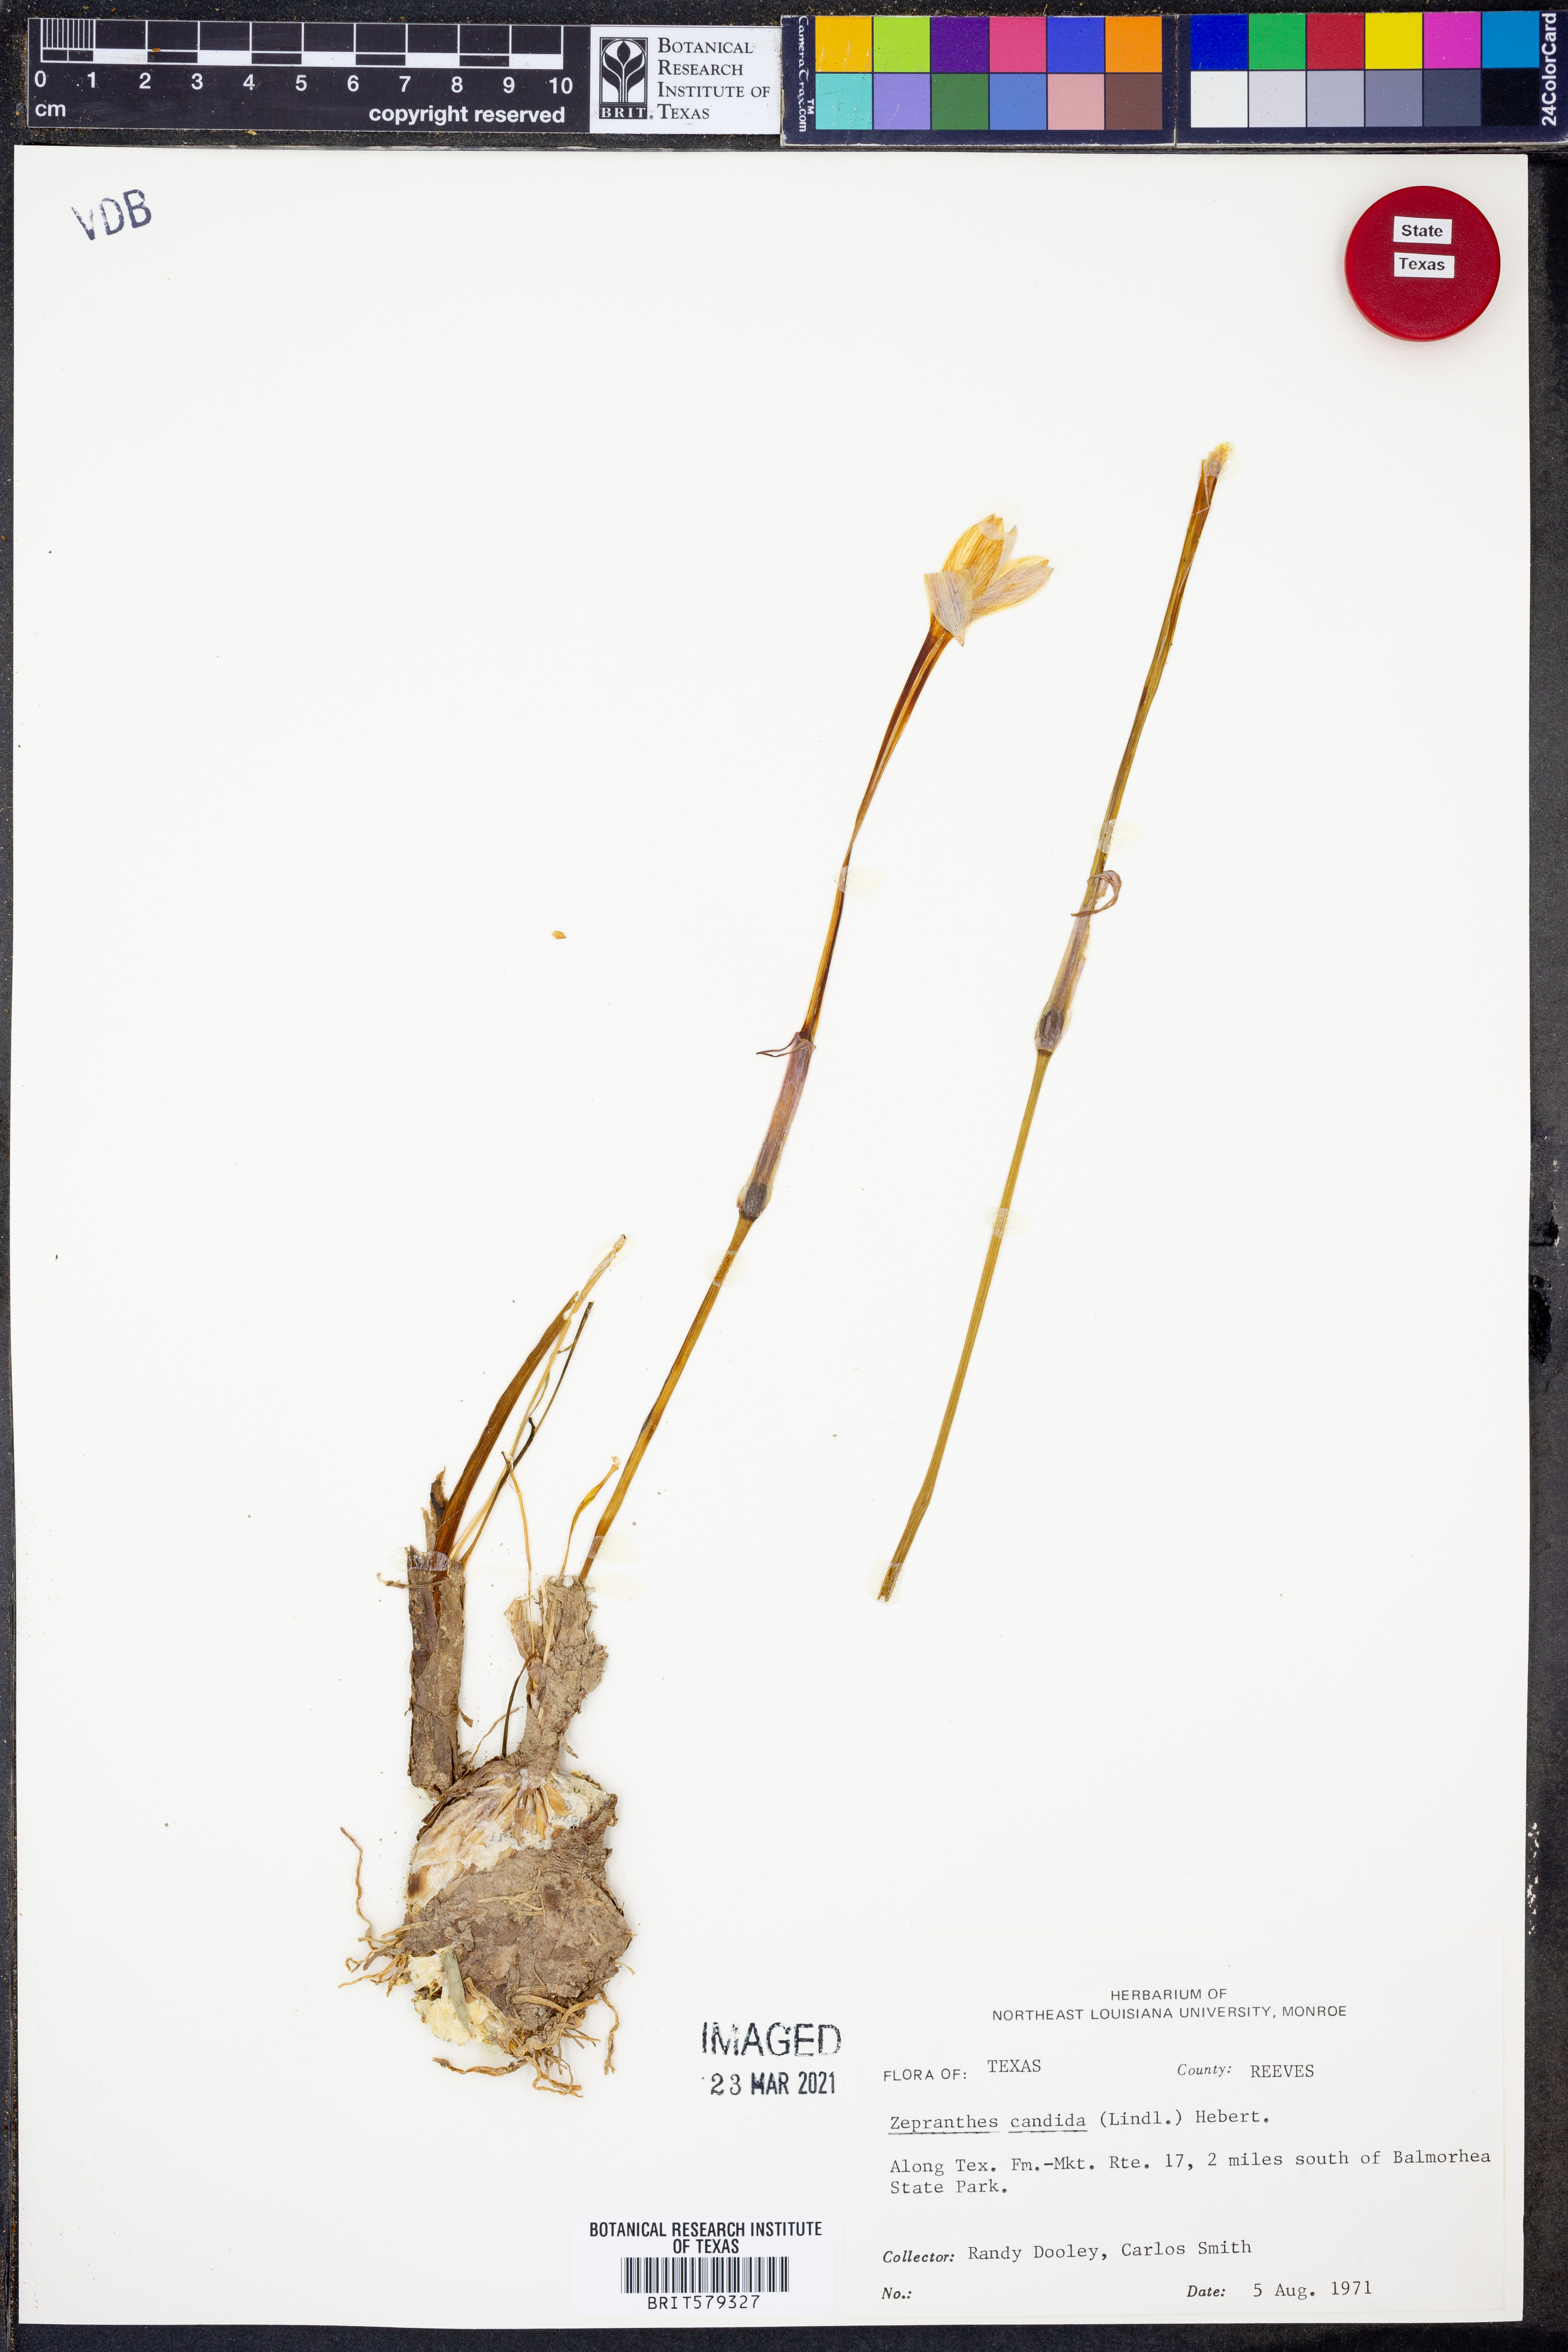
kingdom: Plantae
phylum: Tracheophyta
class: Liliopsida
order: Asparagales
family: Amaryllidaceae
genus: Zephyranthes
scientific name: Zephyranthes candida
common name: Autumn zephyrlily
